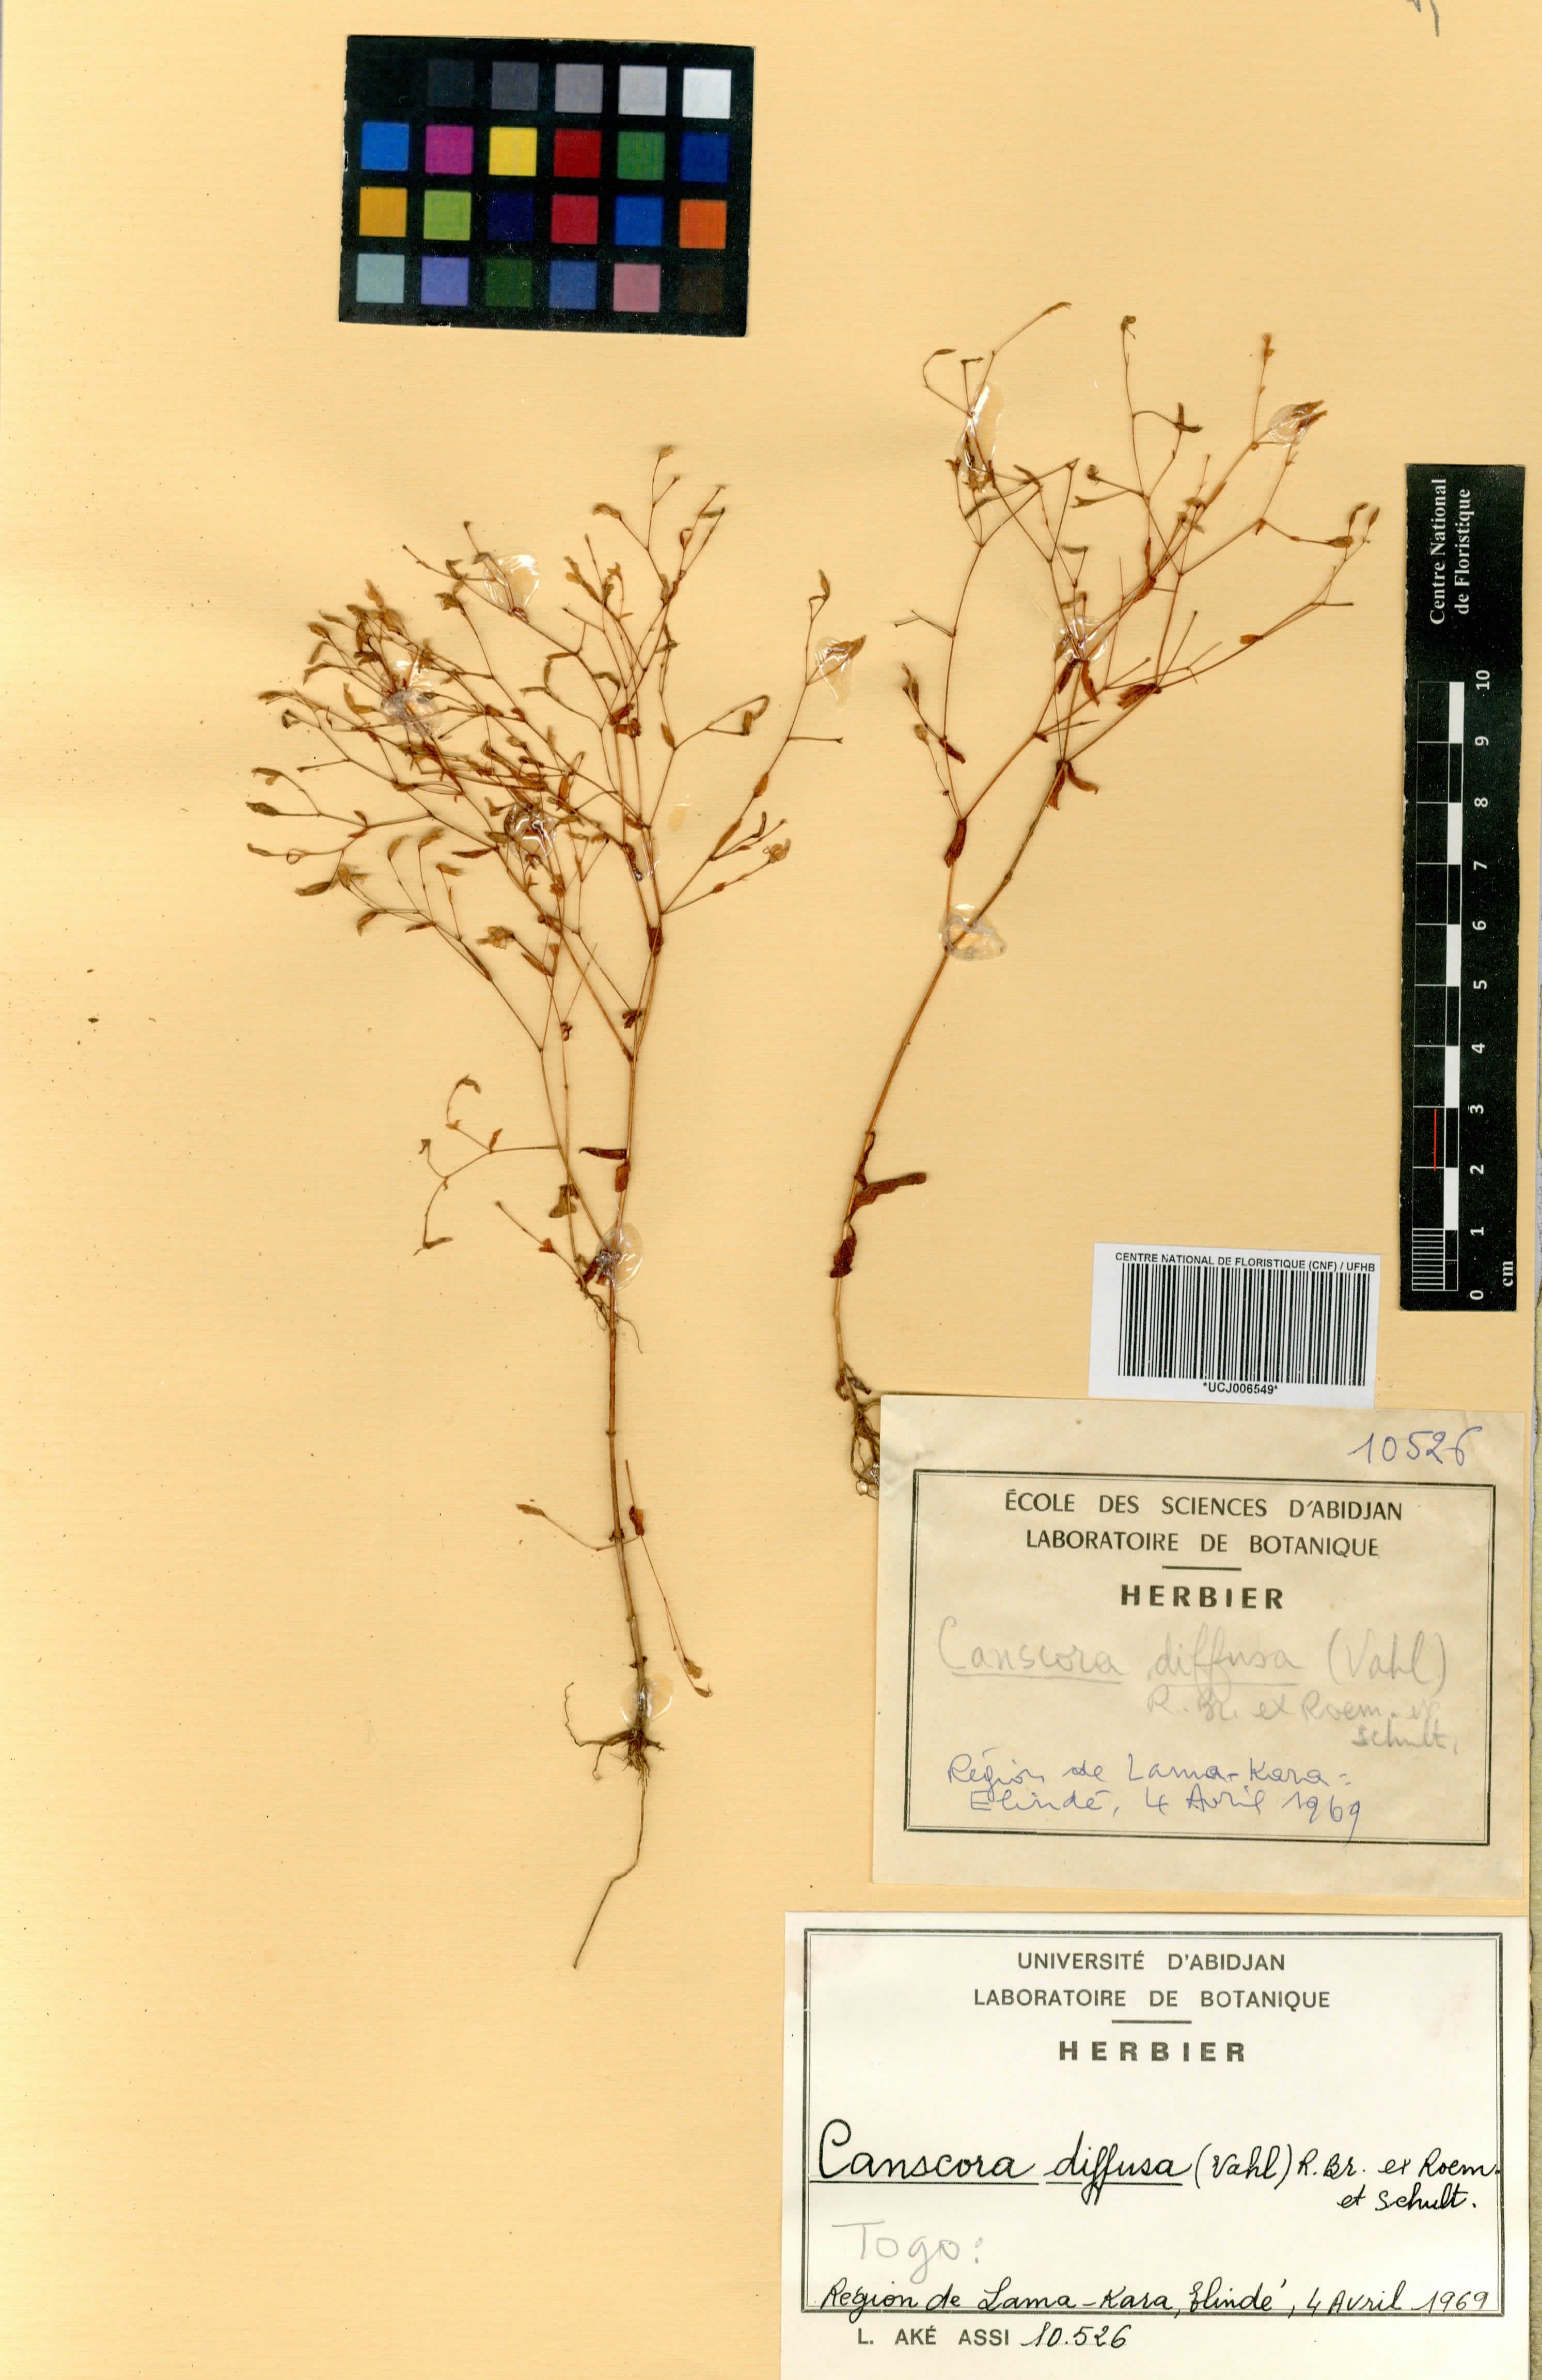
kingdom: Plantae
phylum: Tracheophyta
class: Magnoliopsida
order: Gentianales
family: Gentianaceae
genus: Canscora
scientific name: Canscora diffusa
